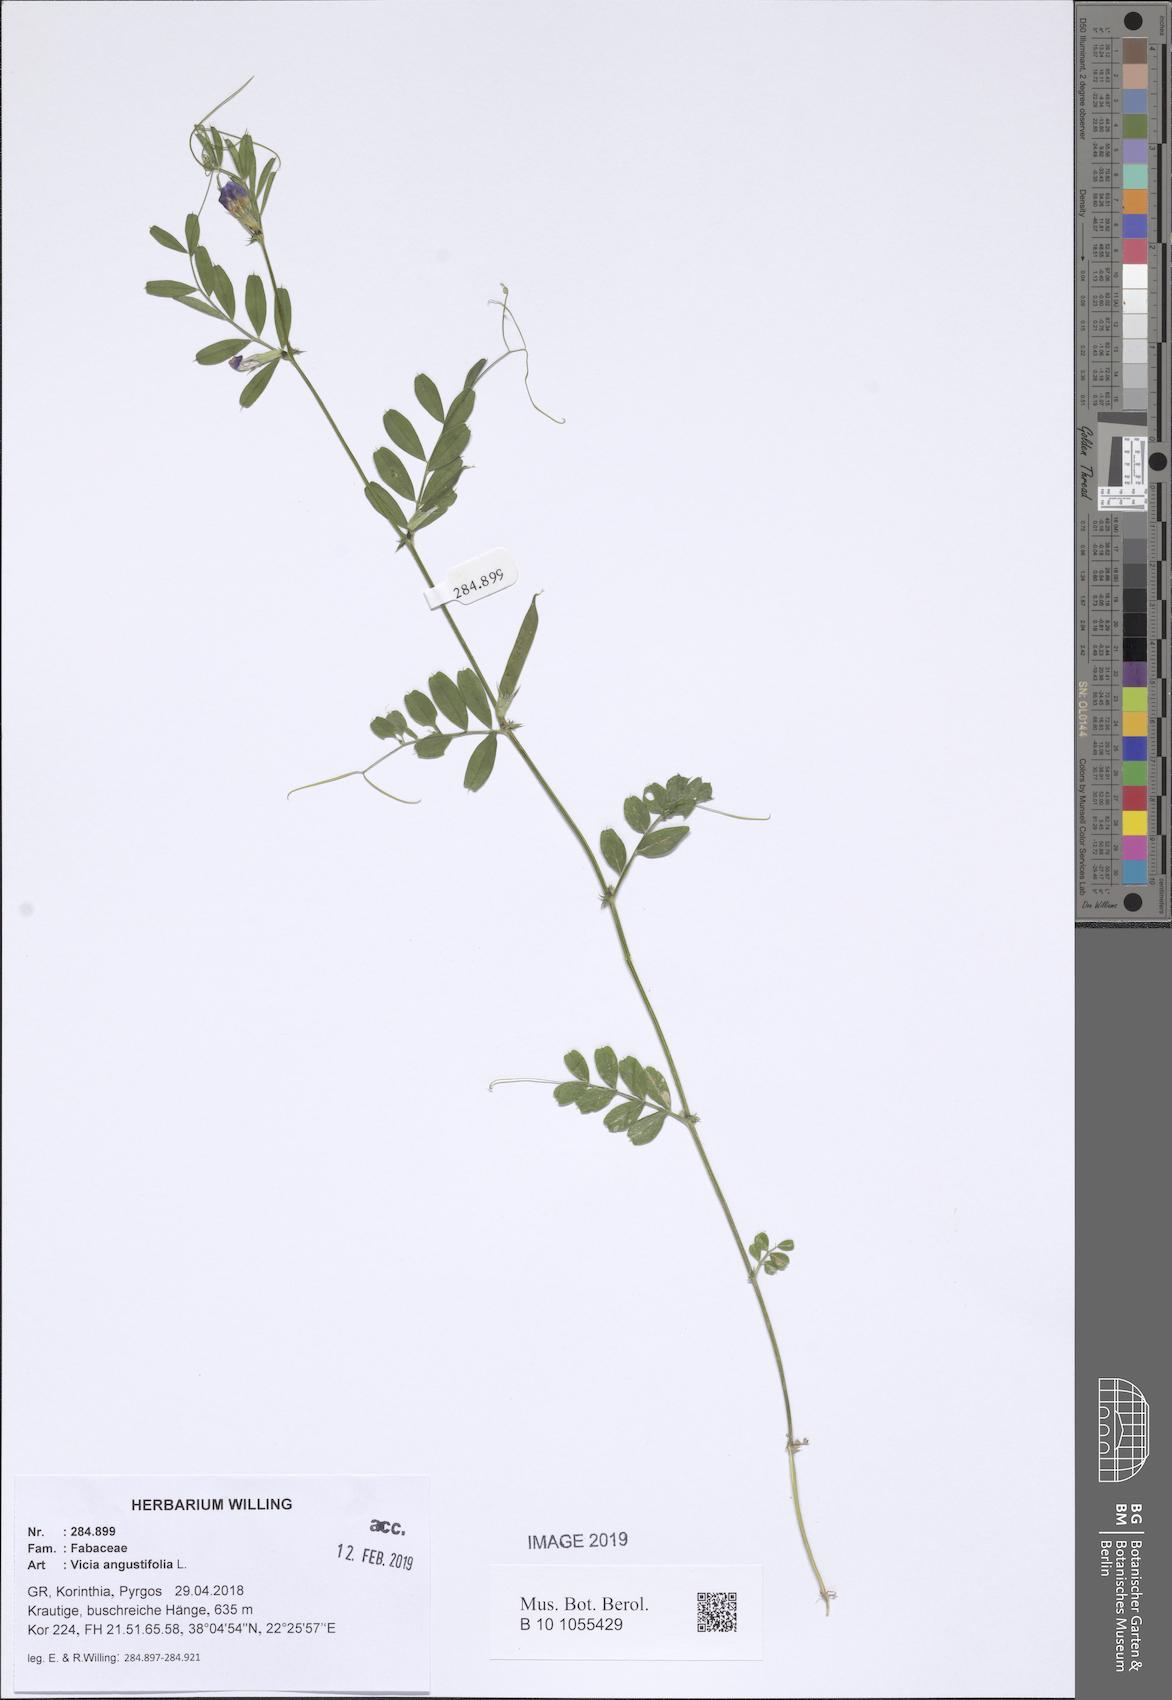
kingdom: Plantae
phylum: Tracheophyta
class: Magnoliopsida
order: Fabales
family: Fabaceae
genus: Vicia
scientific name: Vicia sativa
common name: Garden vetch
